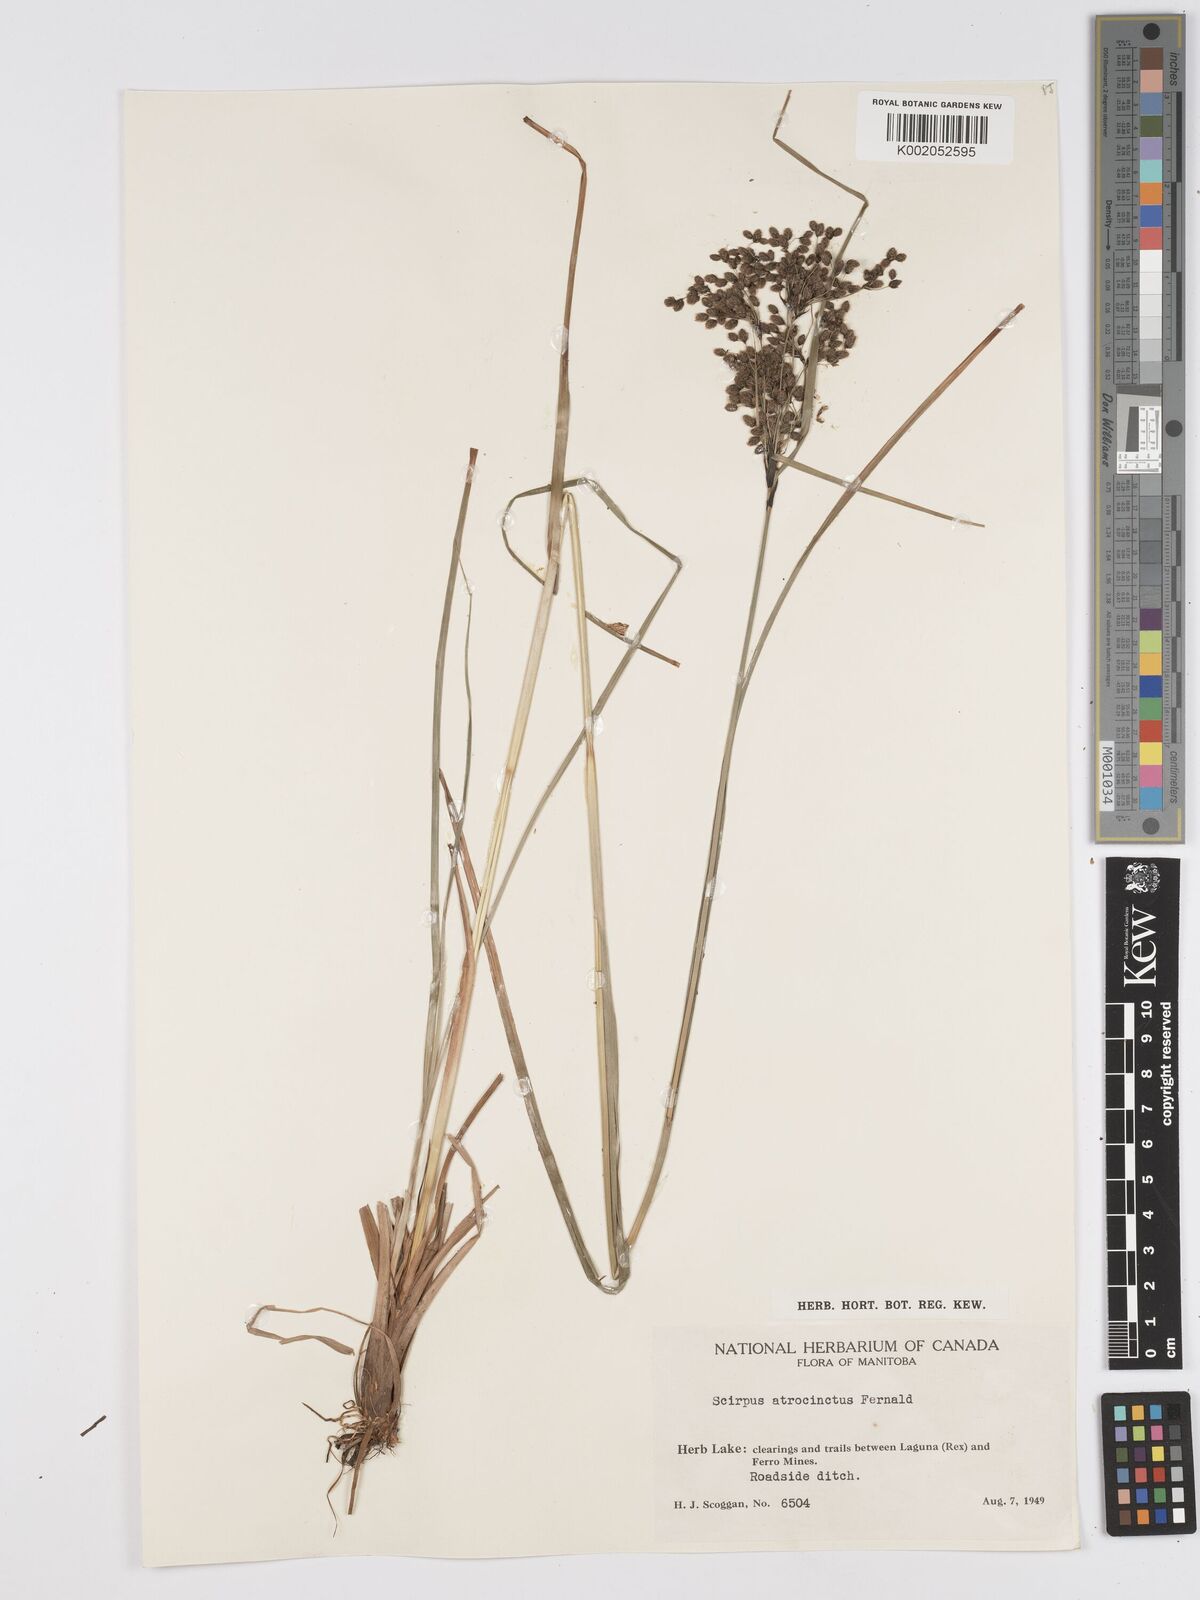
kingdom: Plantae
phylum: Tracheophyta
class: Liliopsida
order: Poales
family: Cyperaceae
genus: Scirpus
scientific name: Scirpus atrocinctus
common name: Black-girdled bulrush
